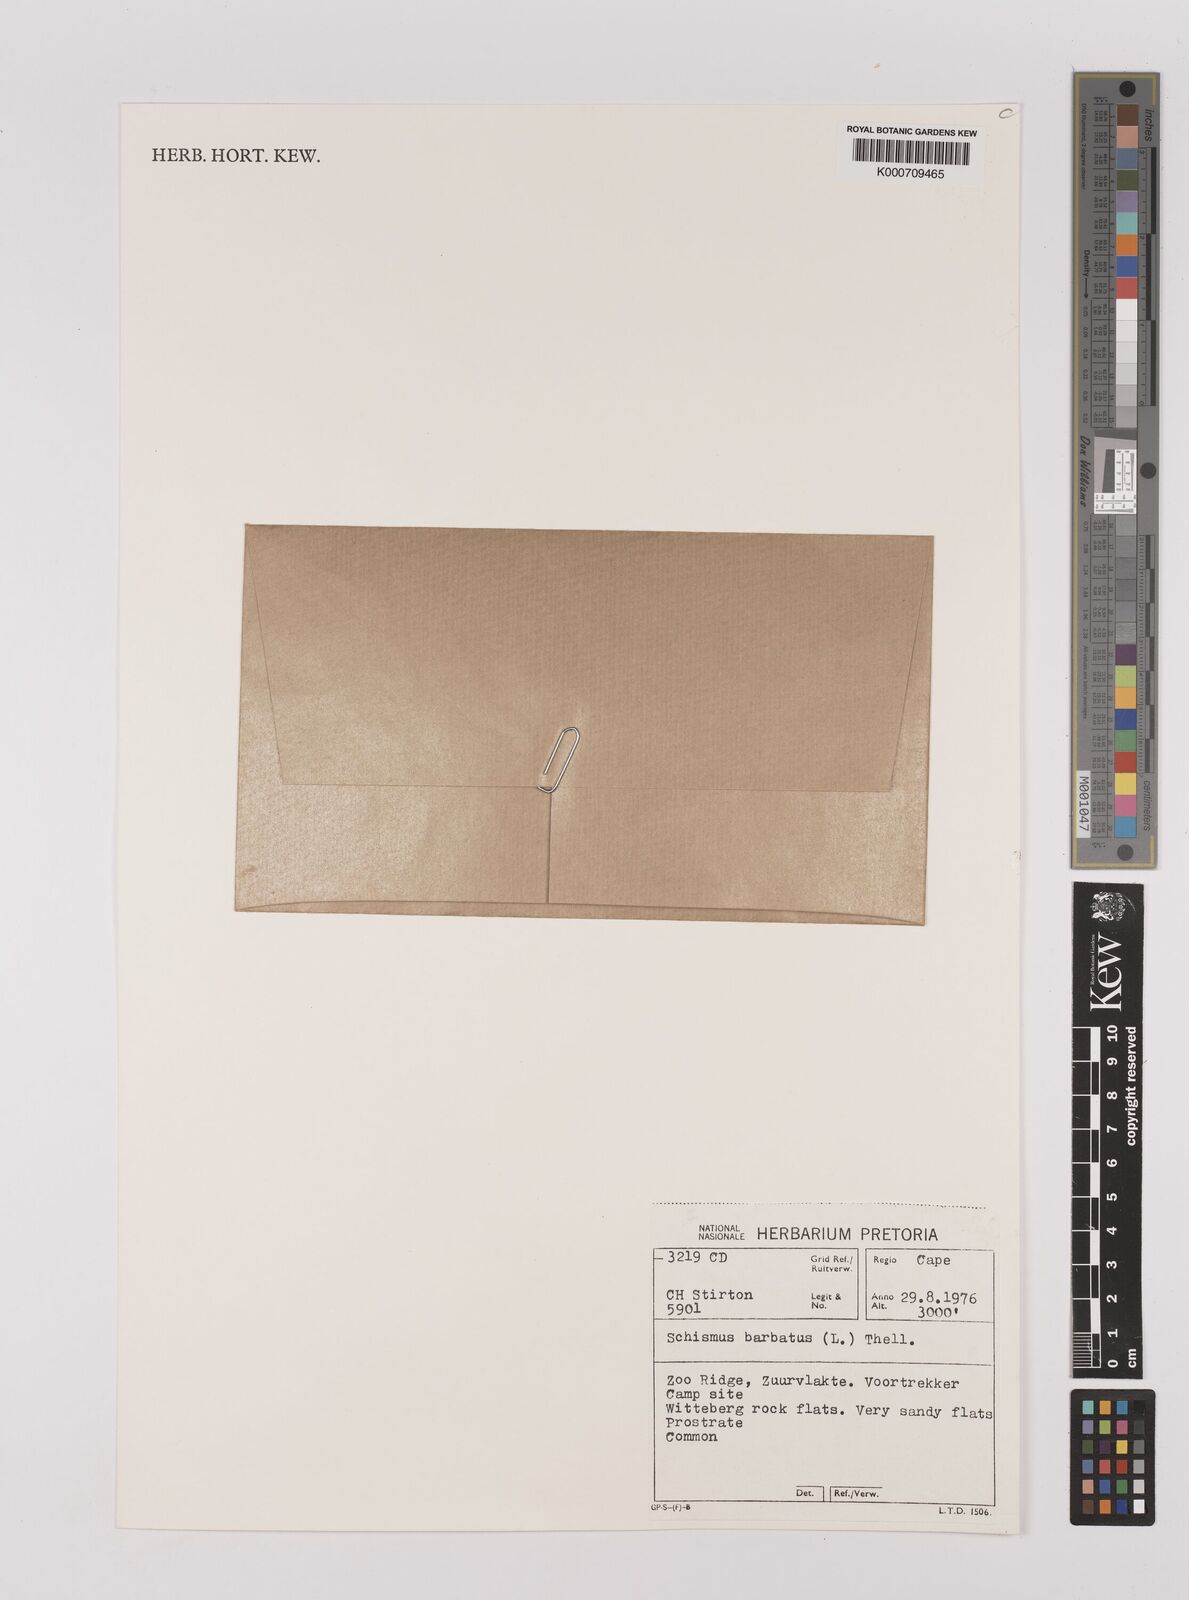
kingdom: Plantae
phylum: Tracheophyta
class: Liliopsida
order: Poales
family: Poaceae
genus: Schismus
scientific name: Schismus barbatus
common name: Kelch-grass
